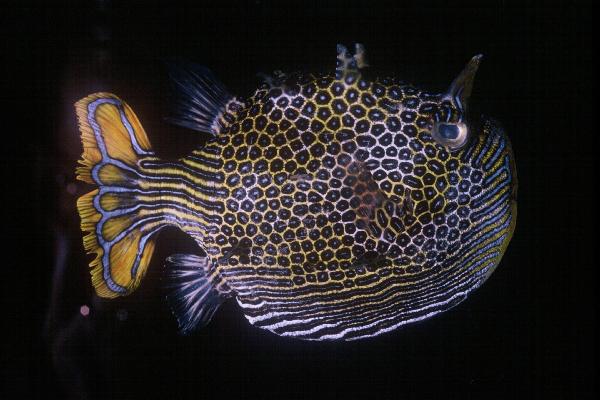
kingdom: Animalia
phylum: Chordata
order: Tetraodontiformes
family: Aracanidae
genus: Aracana
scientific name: Aracana ornata
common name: Ornate cowfish
